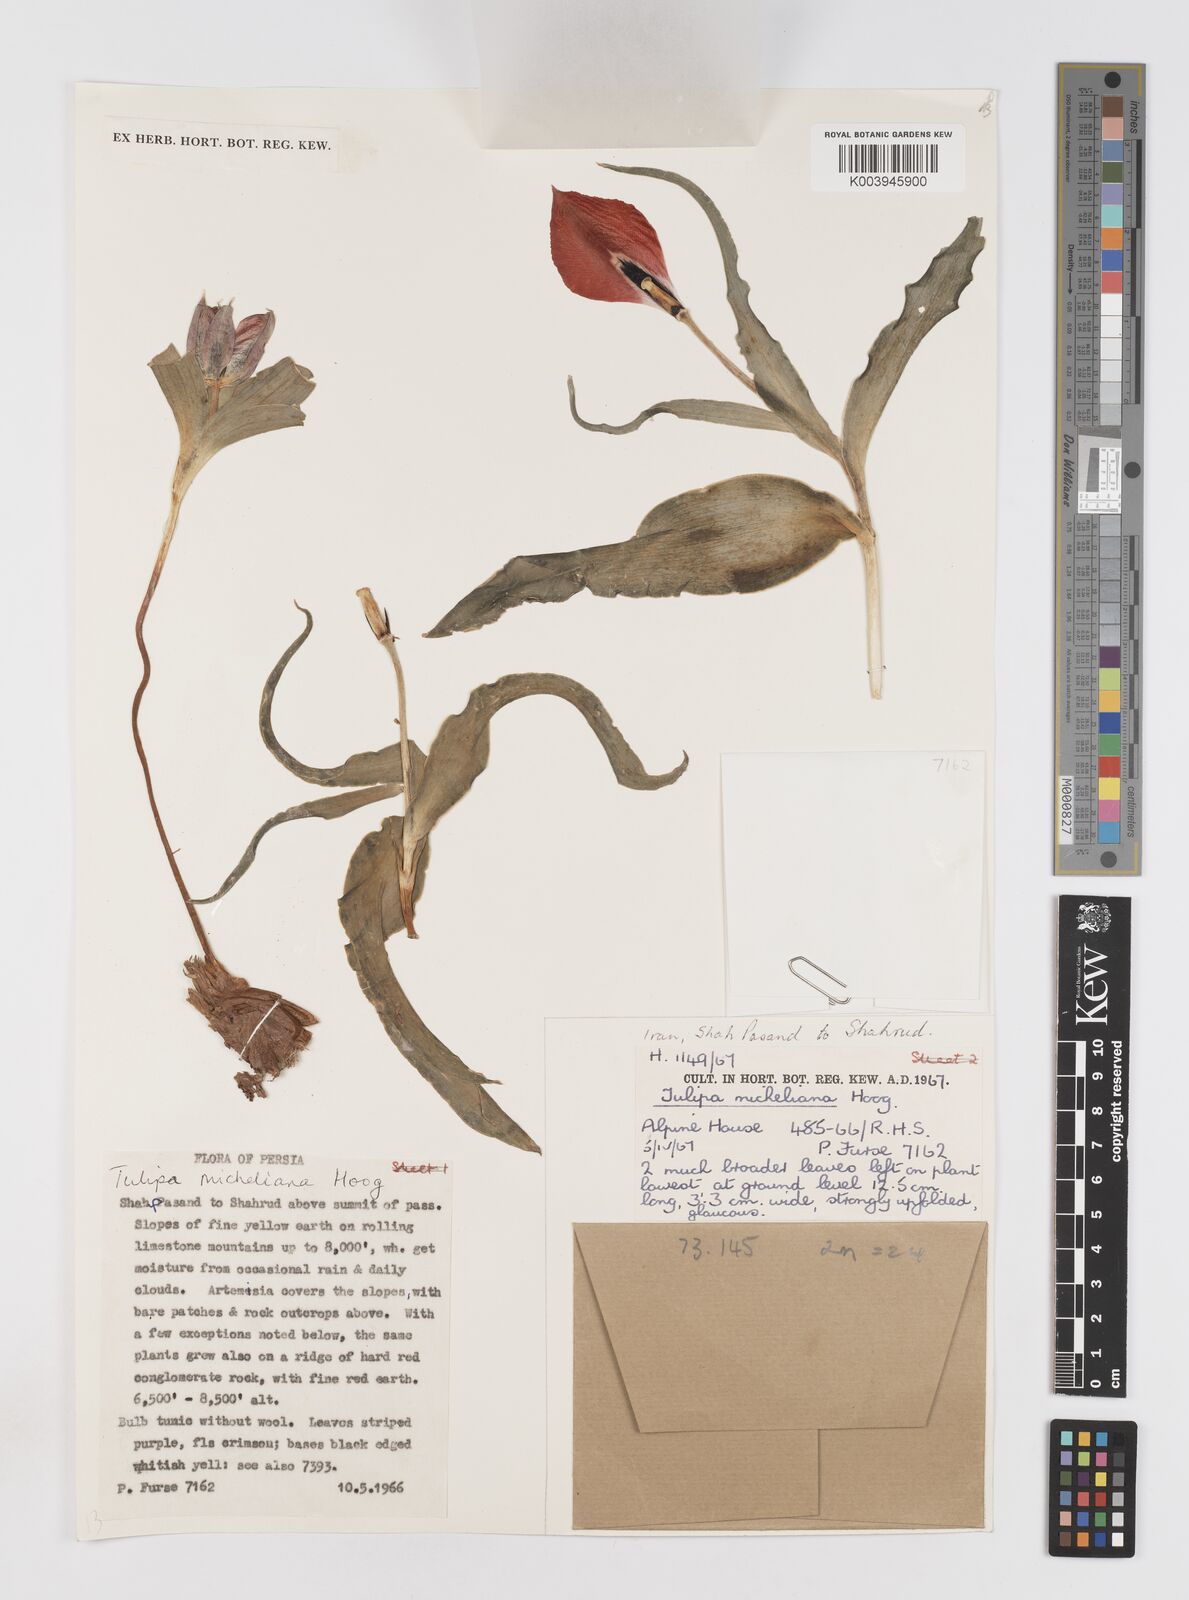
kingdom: Plantae
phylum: Tracheophyta
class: Liliopsida
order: Liliales
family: Liliaceae
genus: Tulipa
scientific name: Tulipa undulatifolia
